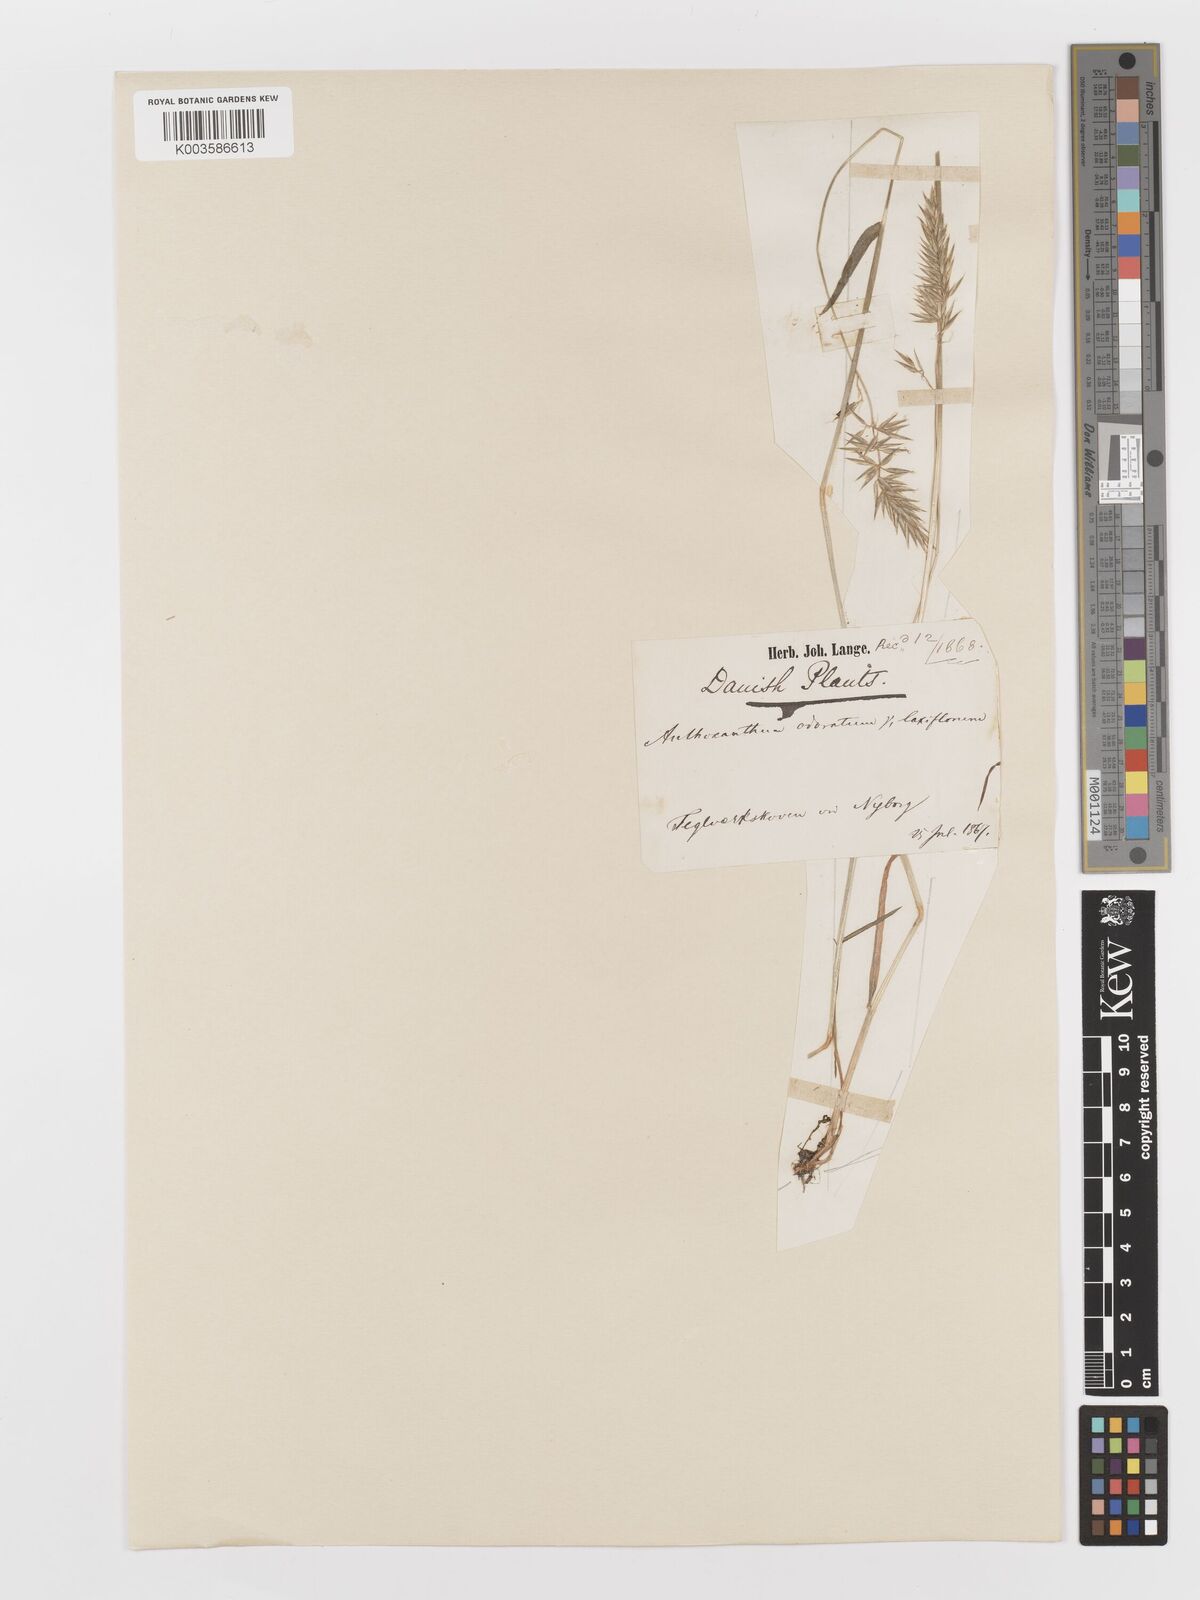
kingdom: Plantae
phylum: Tracheophyta
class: Liliopsida
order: Poales
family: Poaceae
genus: Anthoxanthum
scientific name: Anthoxanthum odoratum
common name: Sweet vernalgrass
